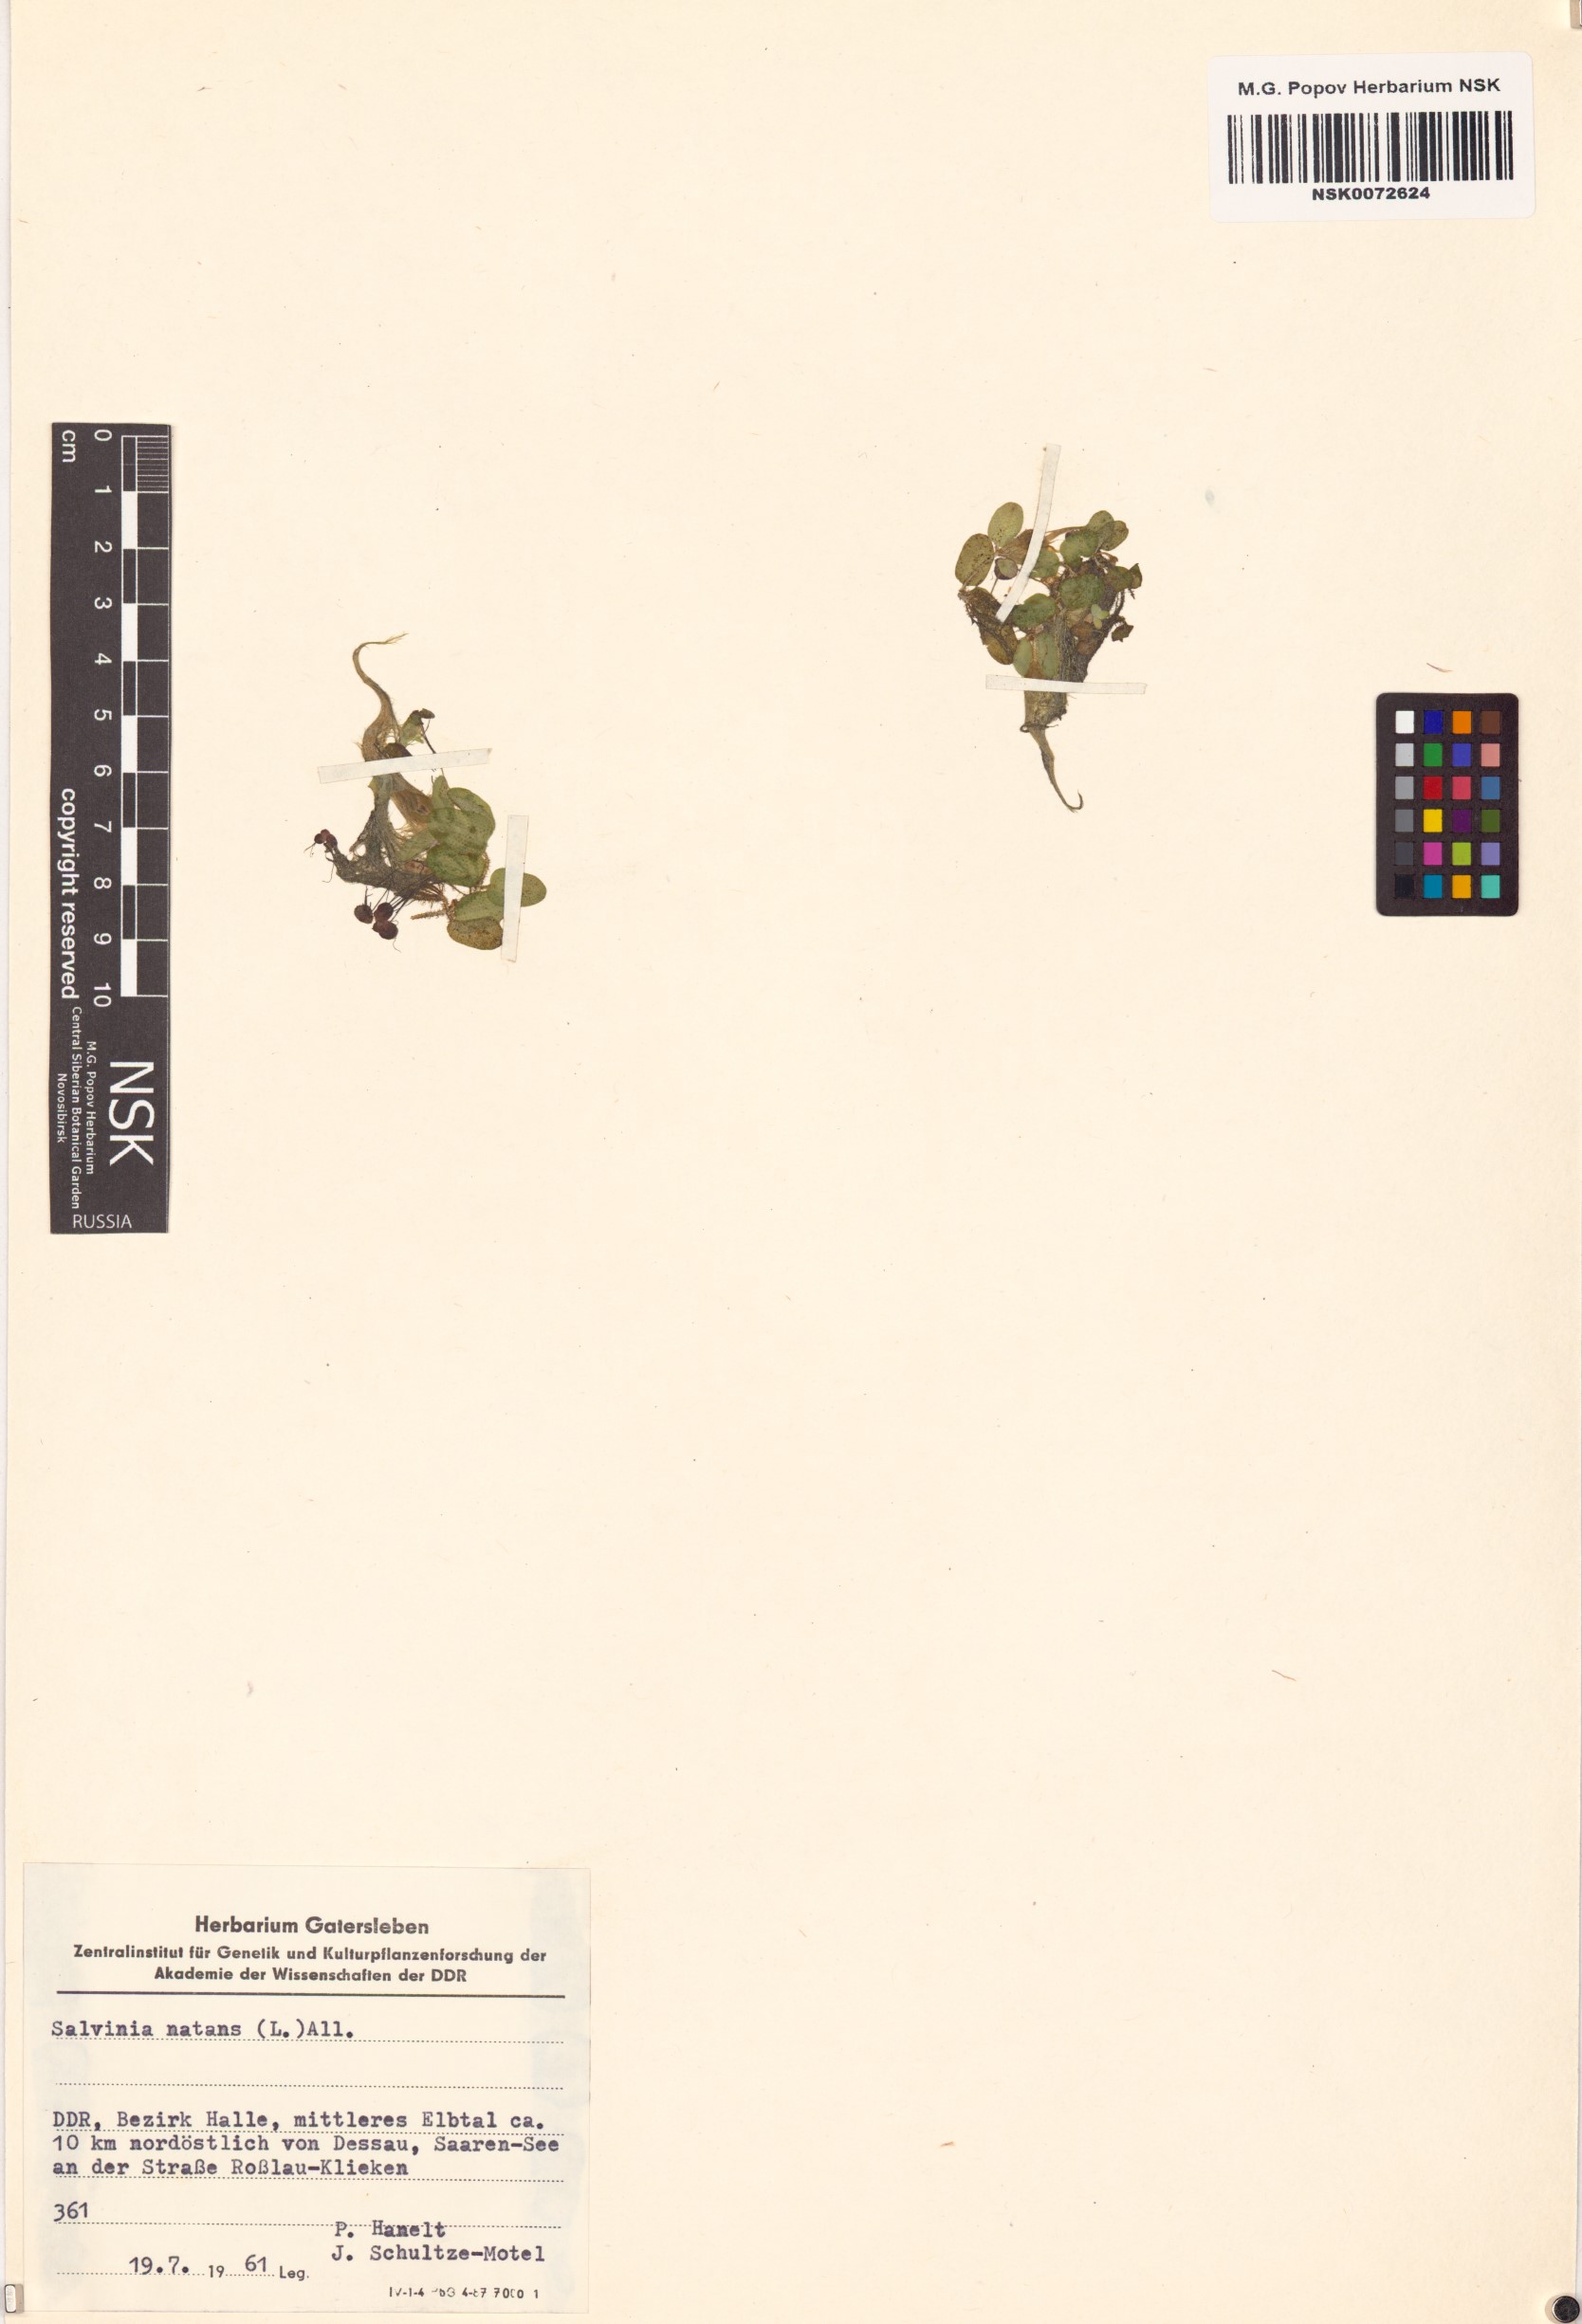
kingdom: Plantae
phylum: Tracheophyta
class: Polypodiopsida
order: Salviniales
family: Salviniaceae
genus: Salvinia
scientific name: Salvinia natans
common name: Floating fern
